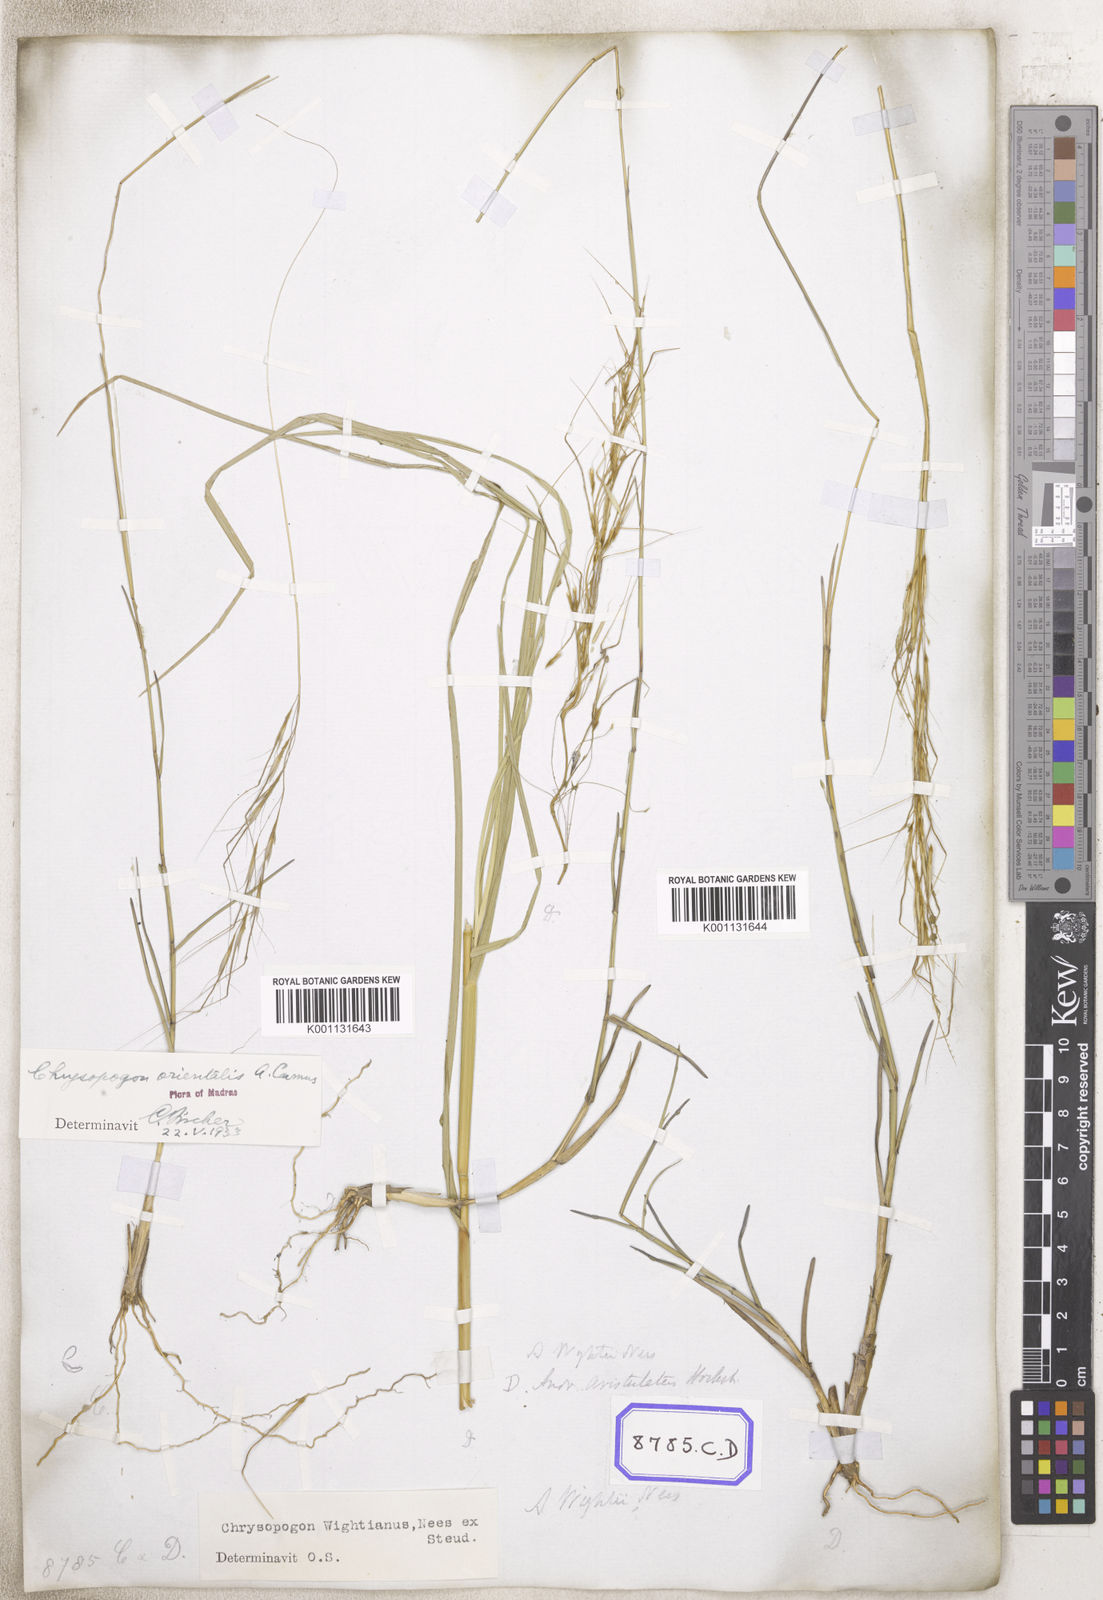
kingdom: Plantae
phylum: Tracheophyta
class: Liliopsida
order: Poales
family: Poaceae
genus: Chrysopogon
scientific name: Chrysopogon
